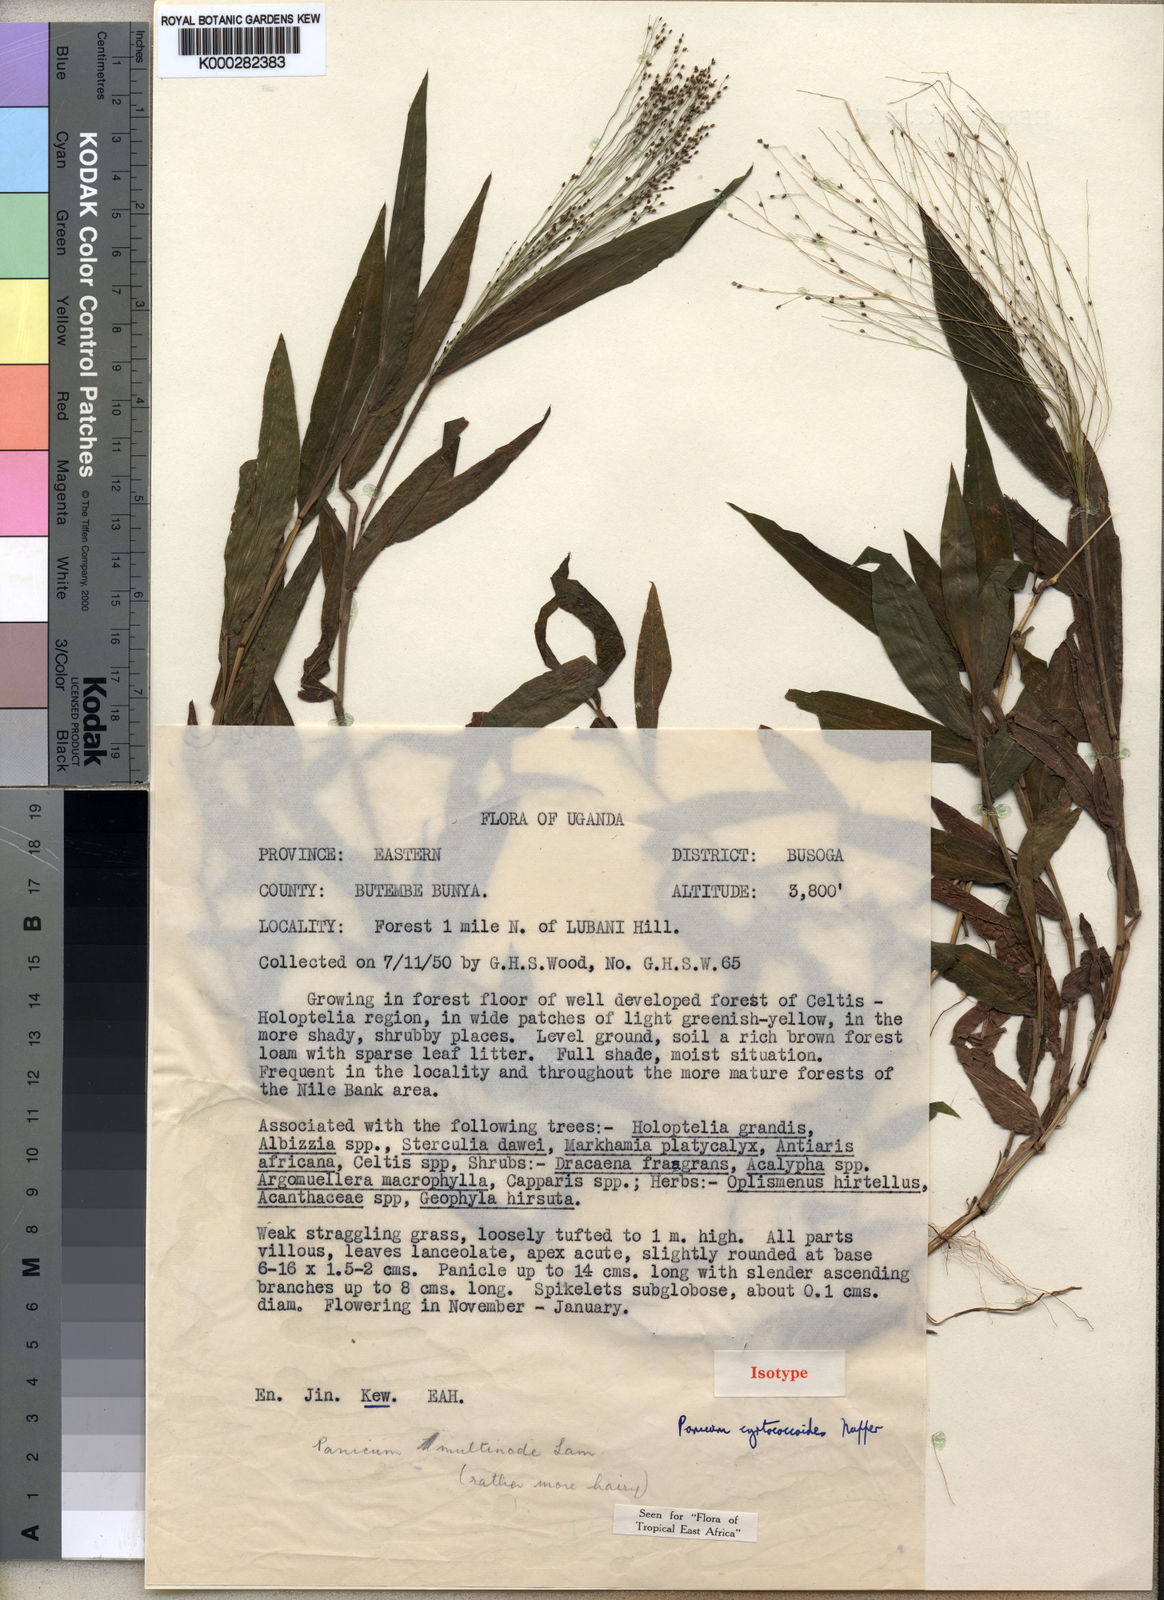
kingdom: Plantae
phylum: Tracheophyta
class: Liliopsida
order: Poales
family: Poaceae
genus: Cyrtococcum
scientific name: Cyrtococcum multinode
